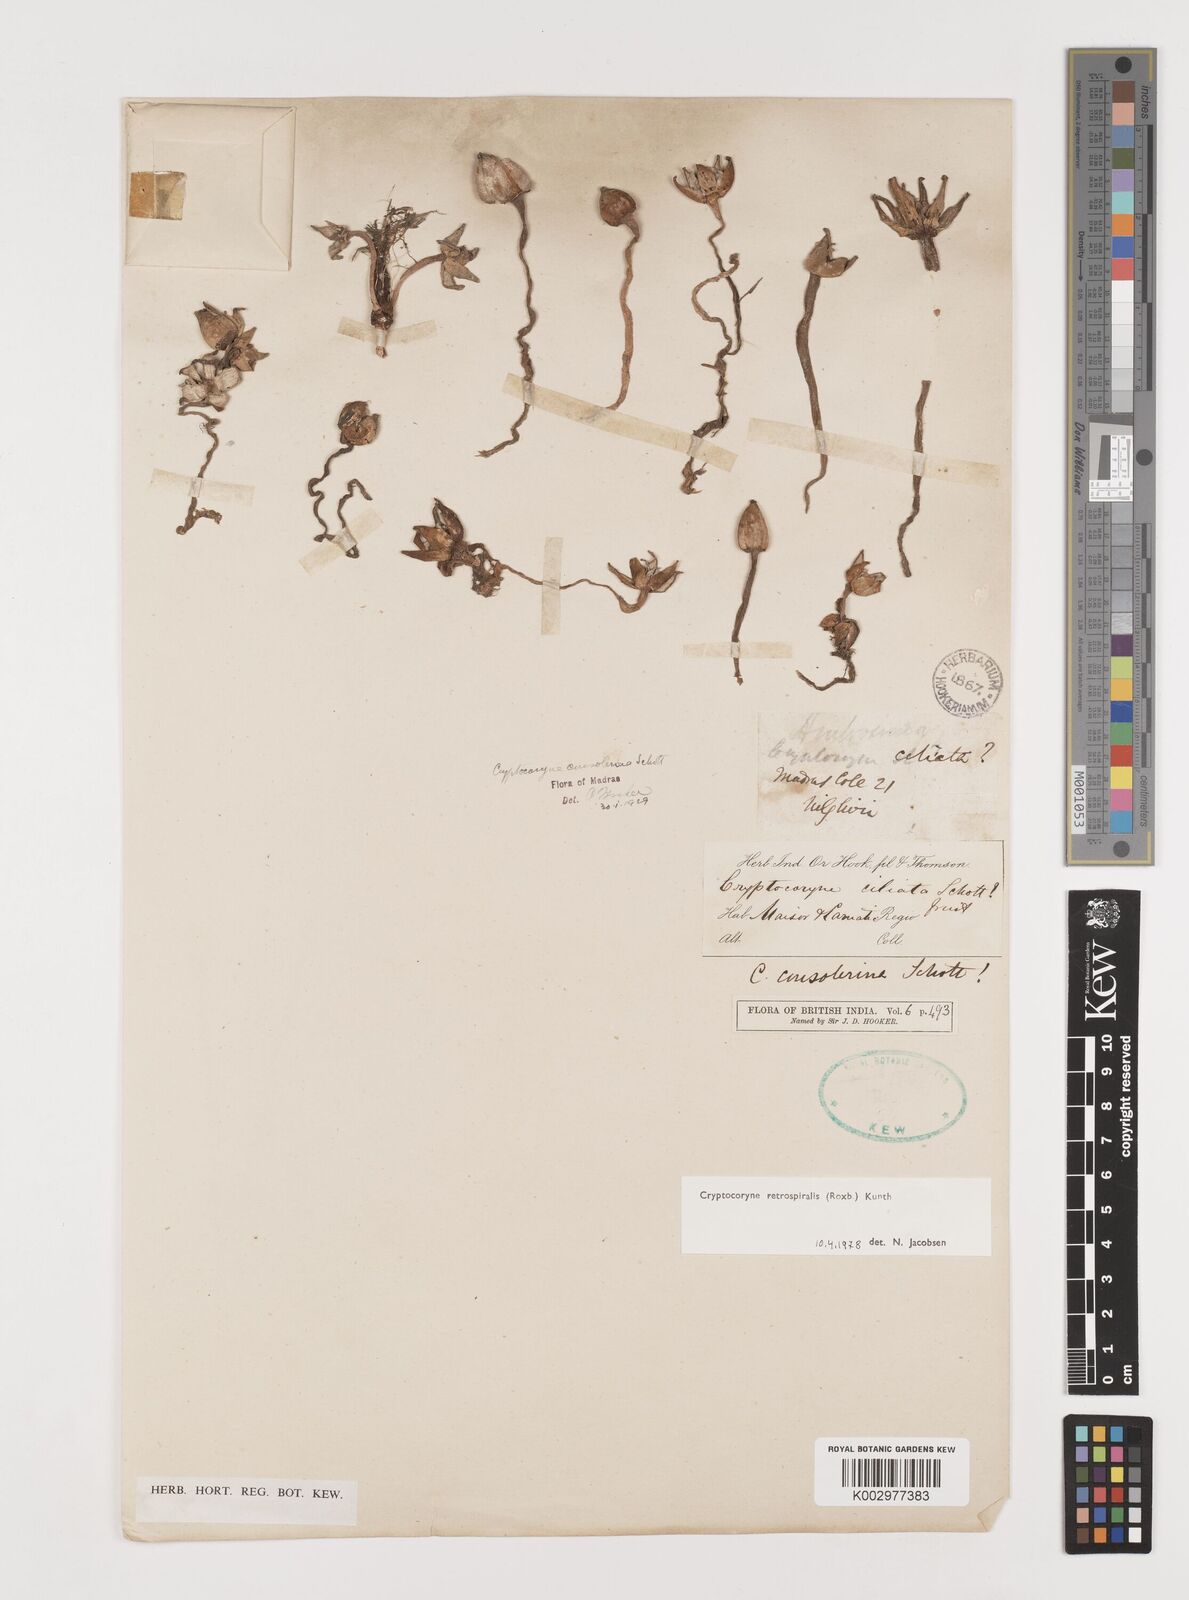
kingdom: Plantae
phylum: Tracheophyta
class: Liliopsida
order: Alismatales
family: Araceae
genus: Cryptocoryne
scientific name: Cryptocoryne retrospiralis
